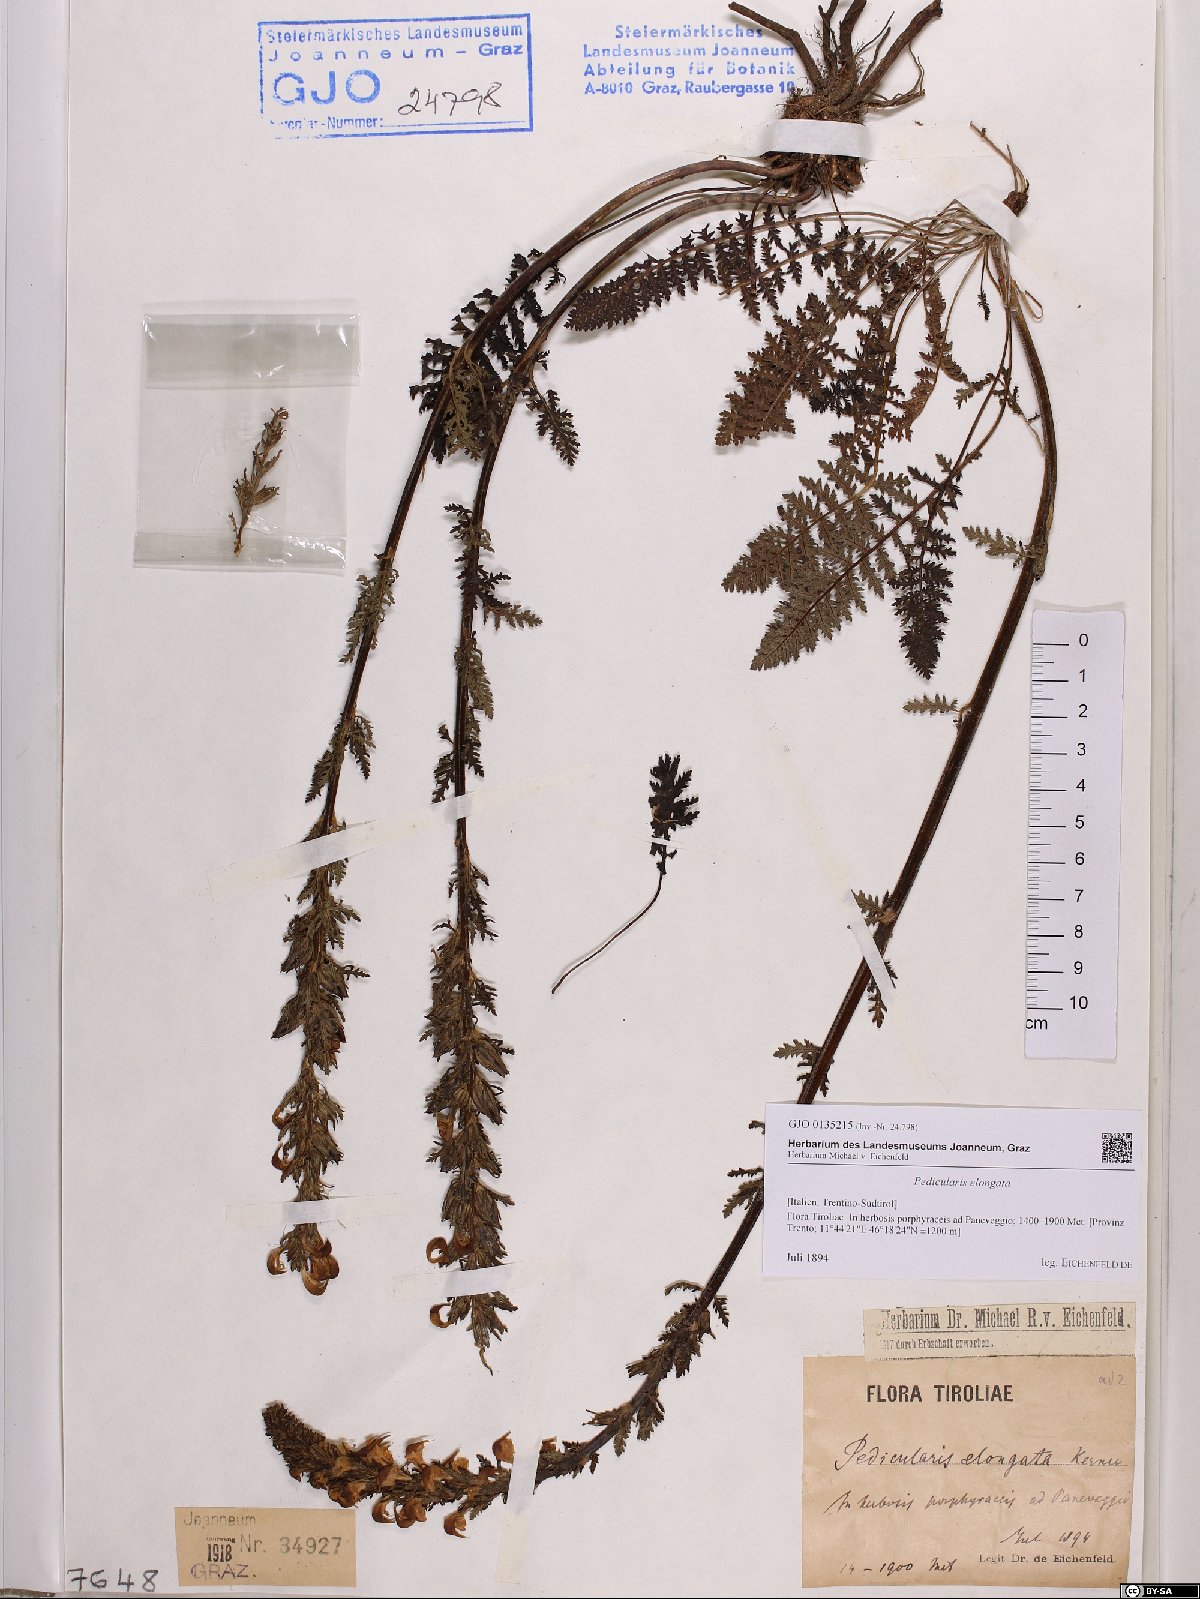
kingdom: Plantae
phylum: Tracheophyta
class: Magnoliopsida
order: Lamiales
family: Orobanchaceae
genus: Pedicularis
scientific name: Pedicularis elongata
